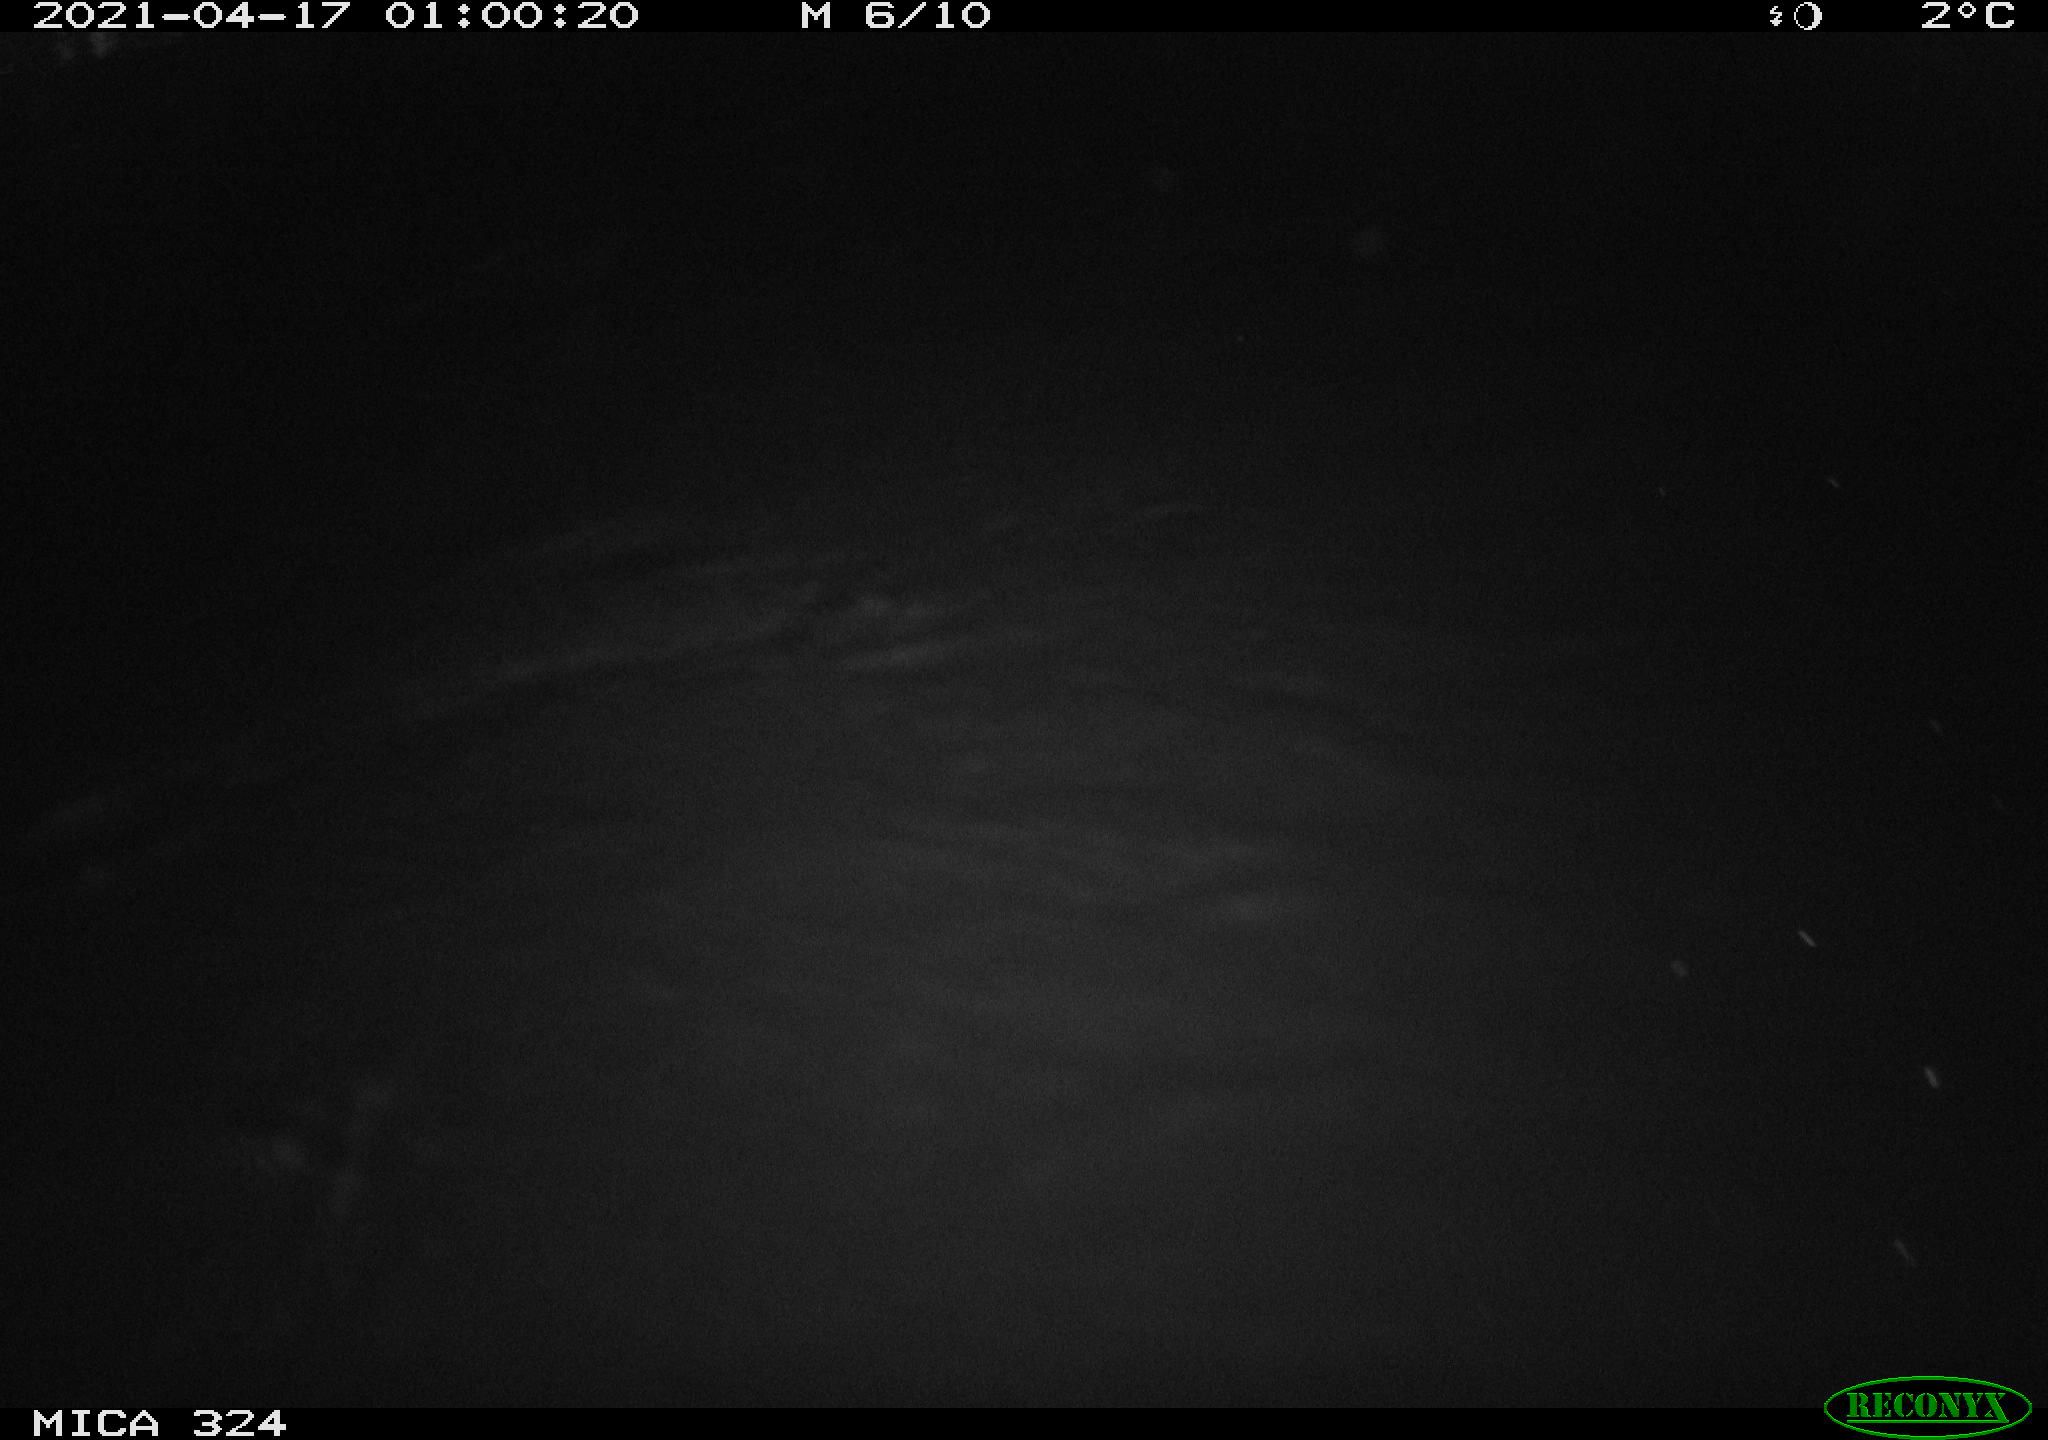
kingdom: Animalia
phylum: Chordata
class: Aves
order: Anseriformes
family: Anatidae
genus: Anas
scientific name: Anas platyrhynchos
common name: Mallard
